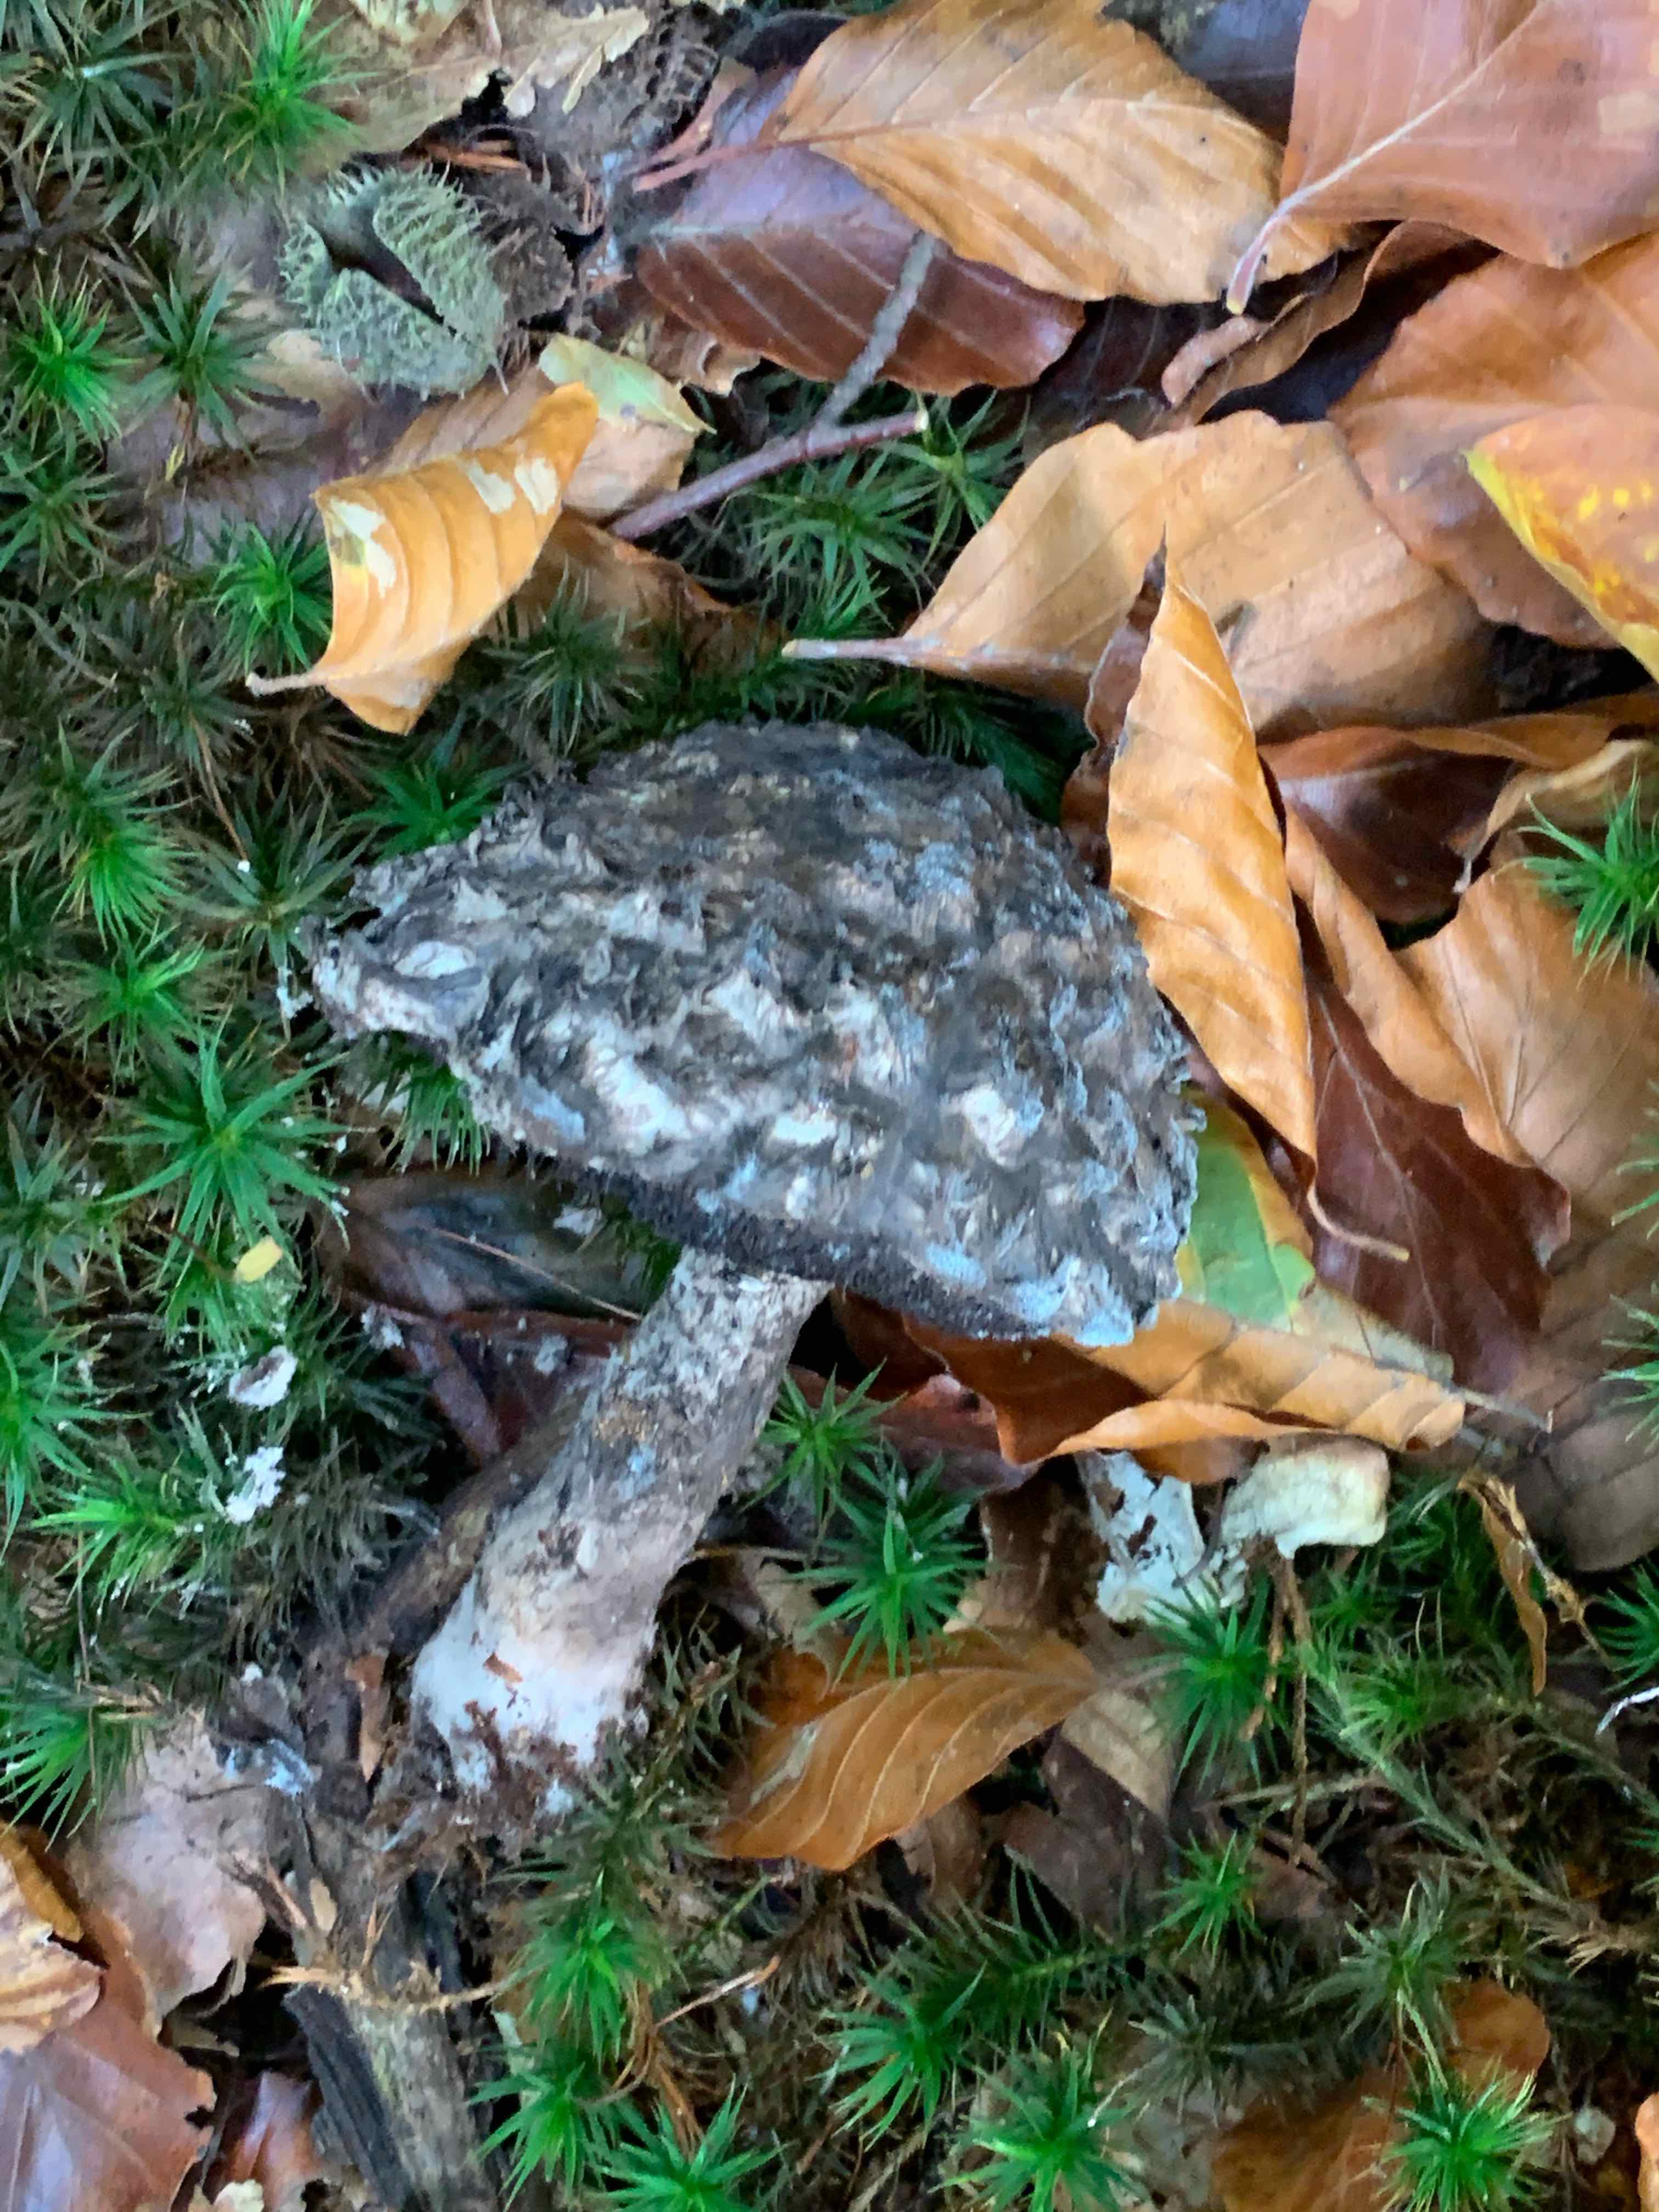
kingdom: Fungi
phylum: Basidiomycota
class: Agaricomycetes
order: Boletales
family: Boletaceae
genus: Strobilomyces
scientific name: Strobilomyces strobilaceus
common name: koglerørhat
